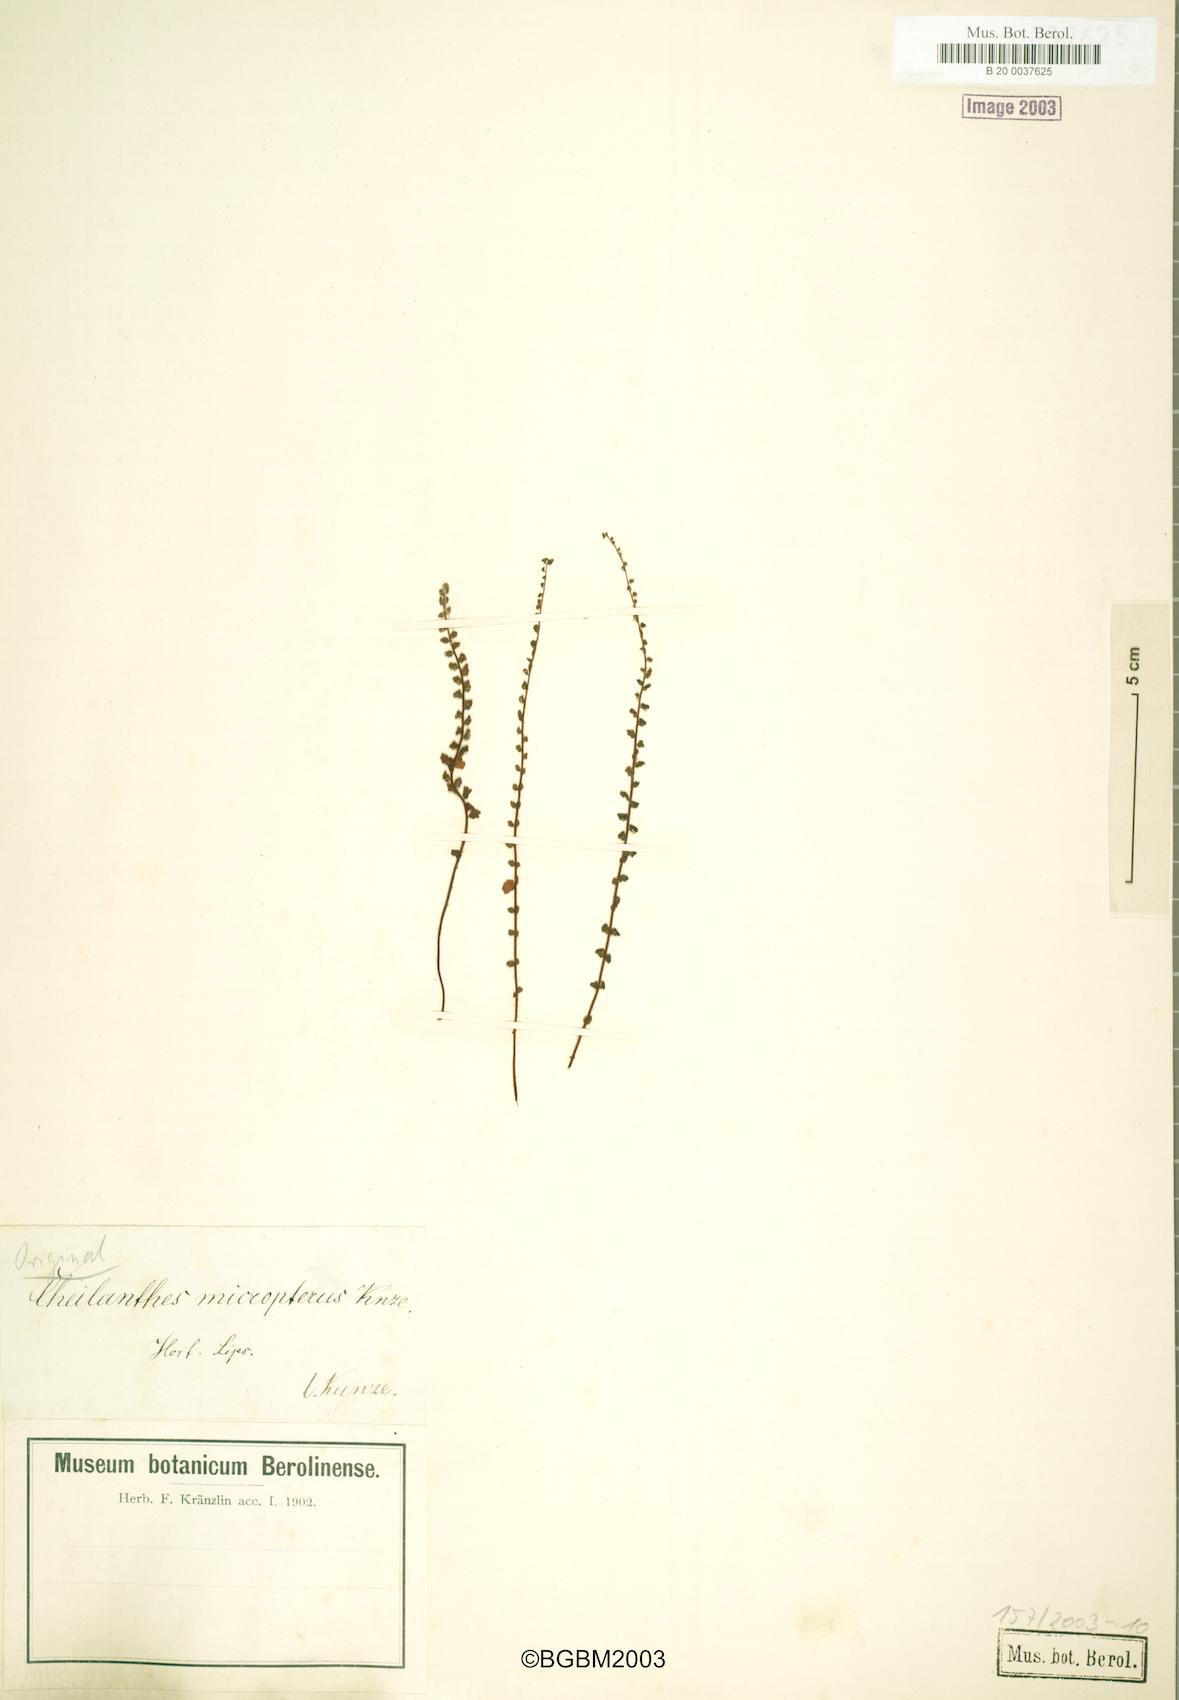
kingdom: Plantae
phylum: Tracheophyta
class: Polypodiopsida
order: Polypodiales
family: Pteridaceae
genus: Cheilanthes
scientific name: Cheilanthes micropteris
